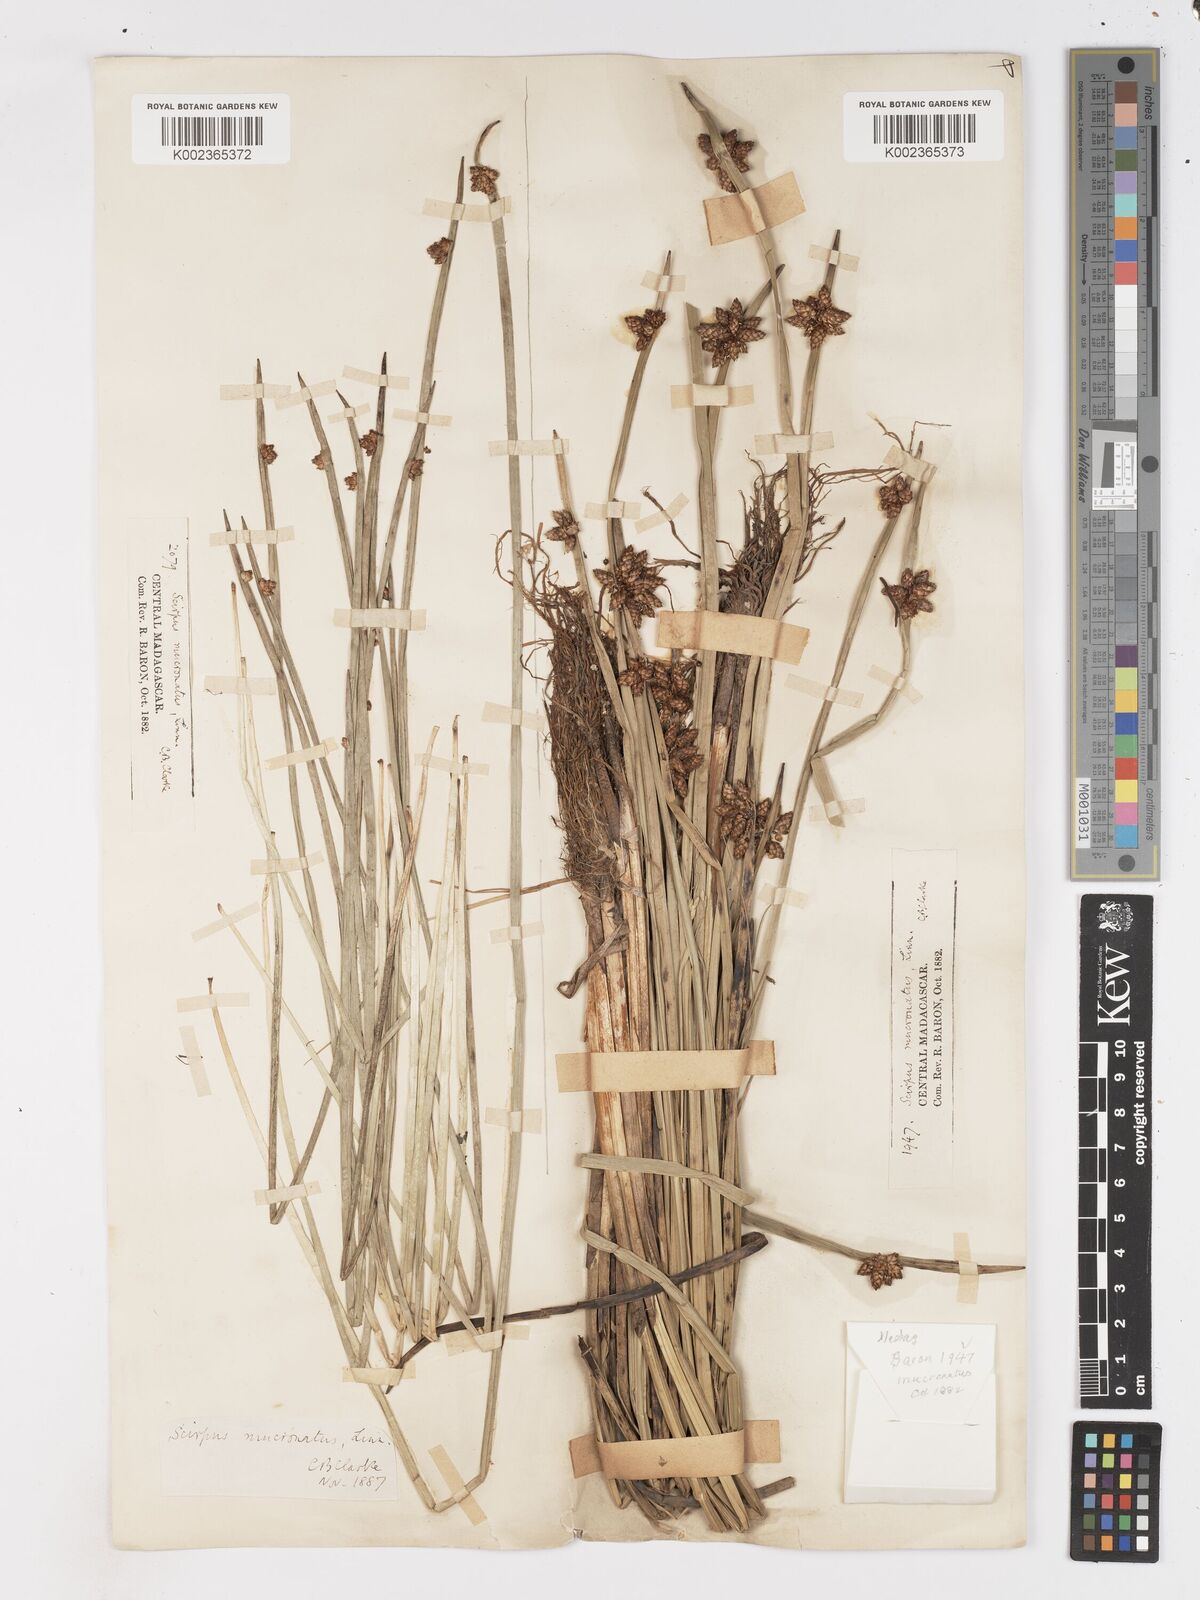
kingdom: Plantae
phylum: Tracheophyta
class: Liliopsida
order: Poales
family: Cyperaceae
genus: Schoenoplectiella
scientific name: Schoenoplectiella mucronata
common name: Bog bulrush
